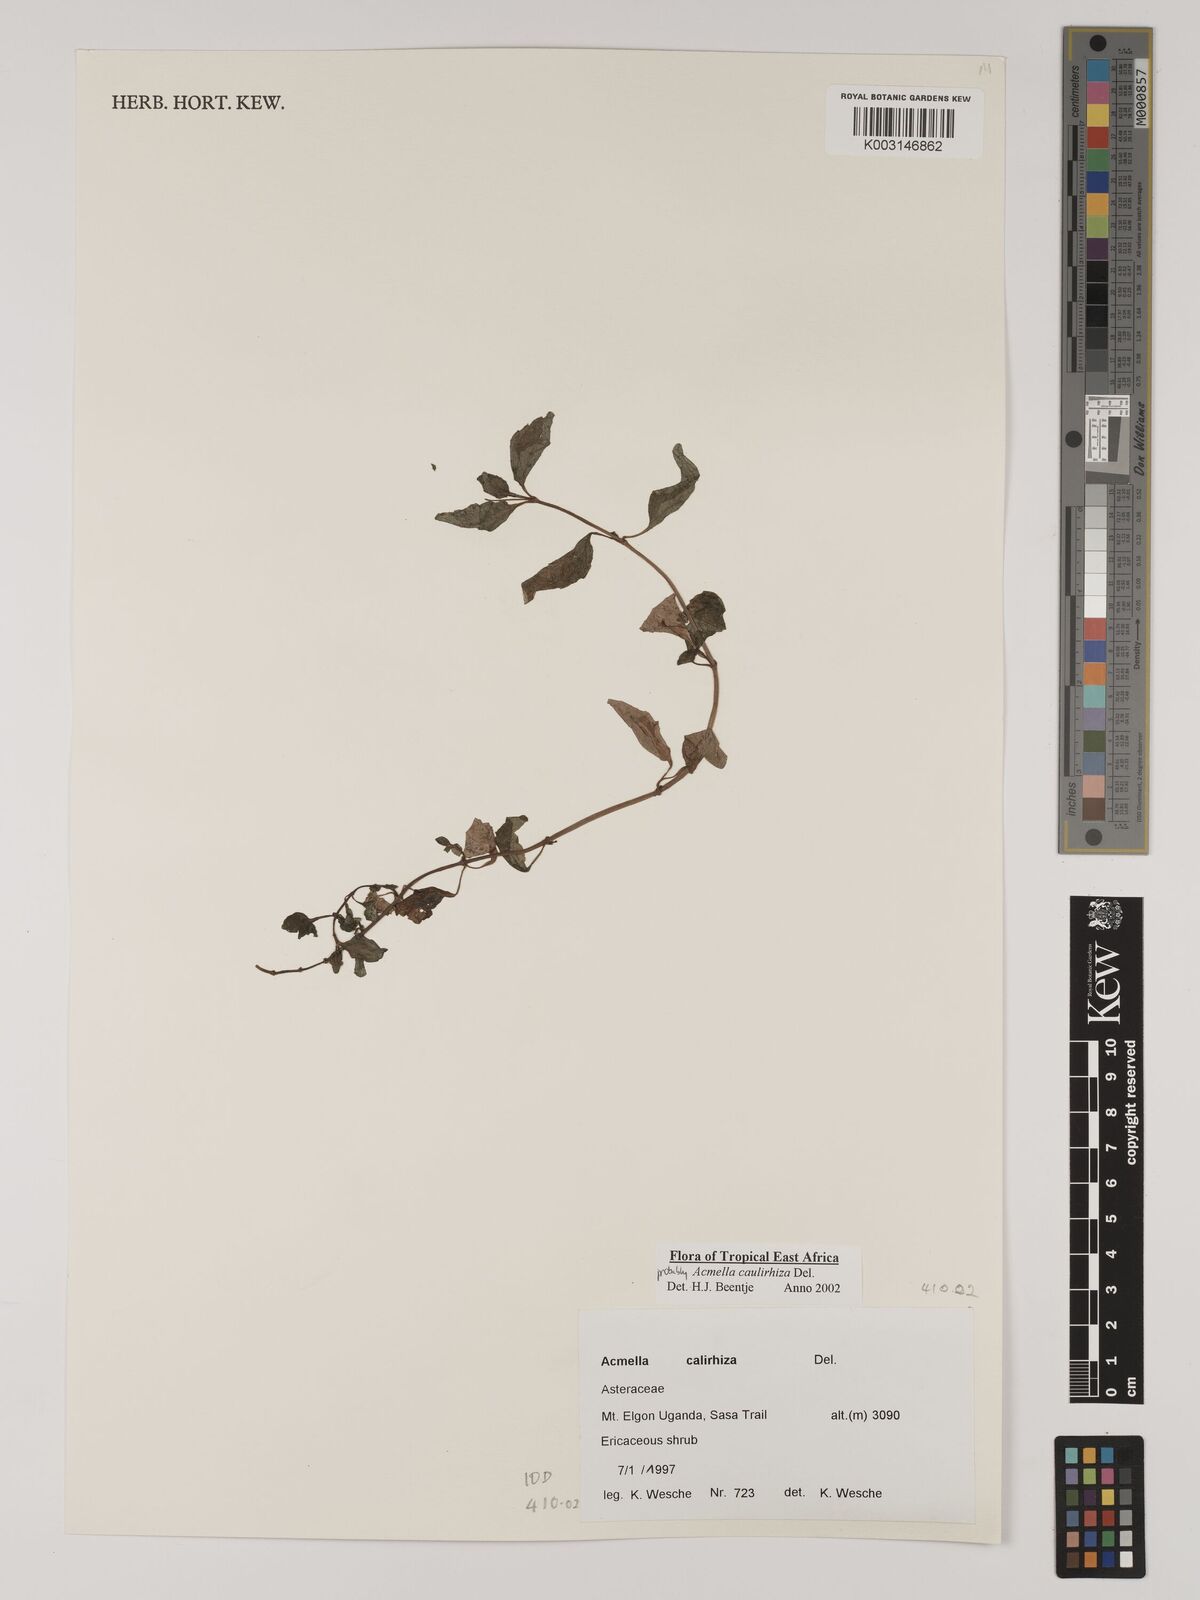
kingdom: Plantae
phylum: Tracheophyta
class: Magnoliopsida
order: Asterales
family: Asteraceae
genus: Acmella
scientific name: Acmella caulirhiza
